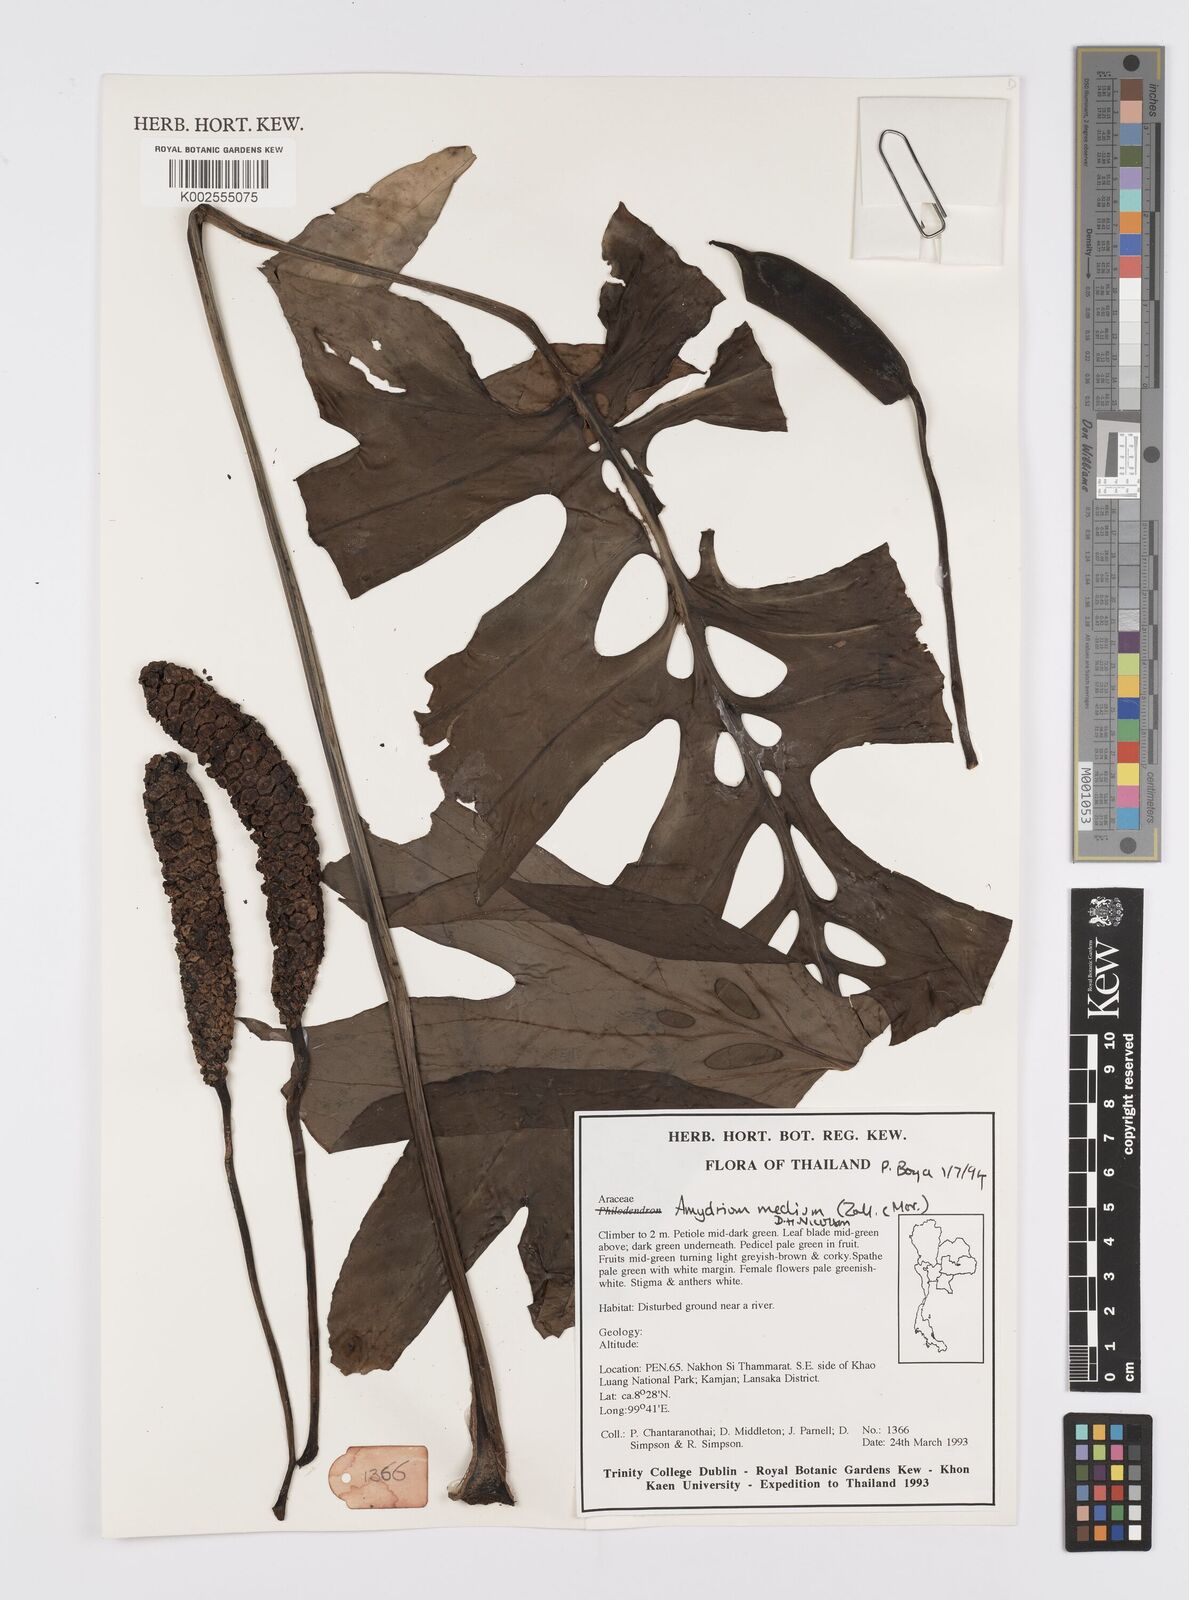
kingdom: Plantae
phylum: Tracheophyta
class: Liliopsida
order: Alismatales
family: Araceae
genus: Amydrium
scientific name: Amydrium medium
